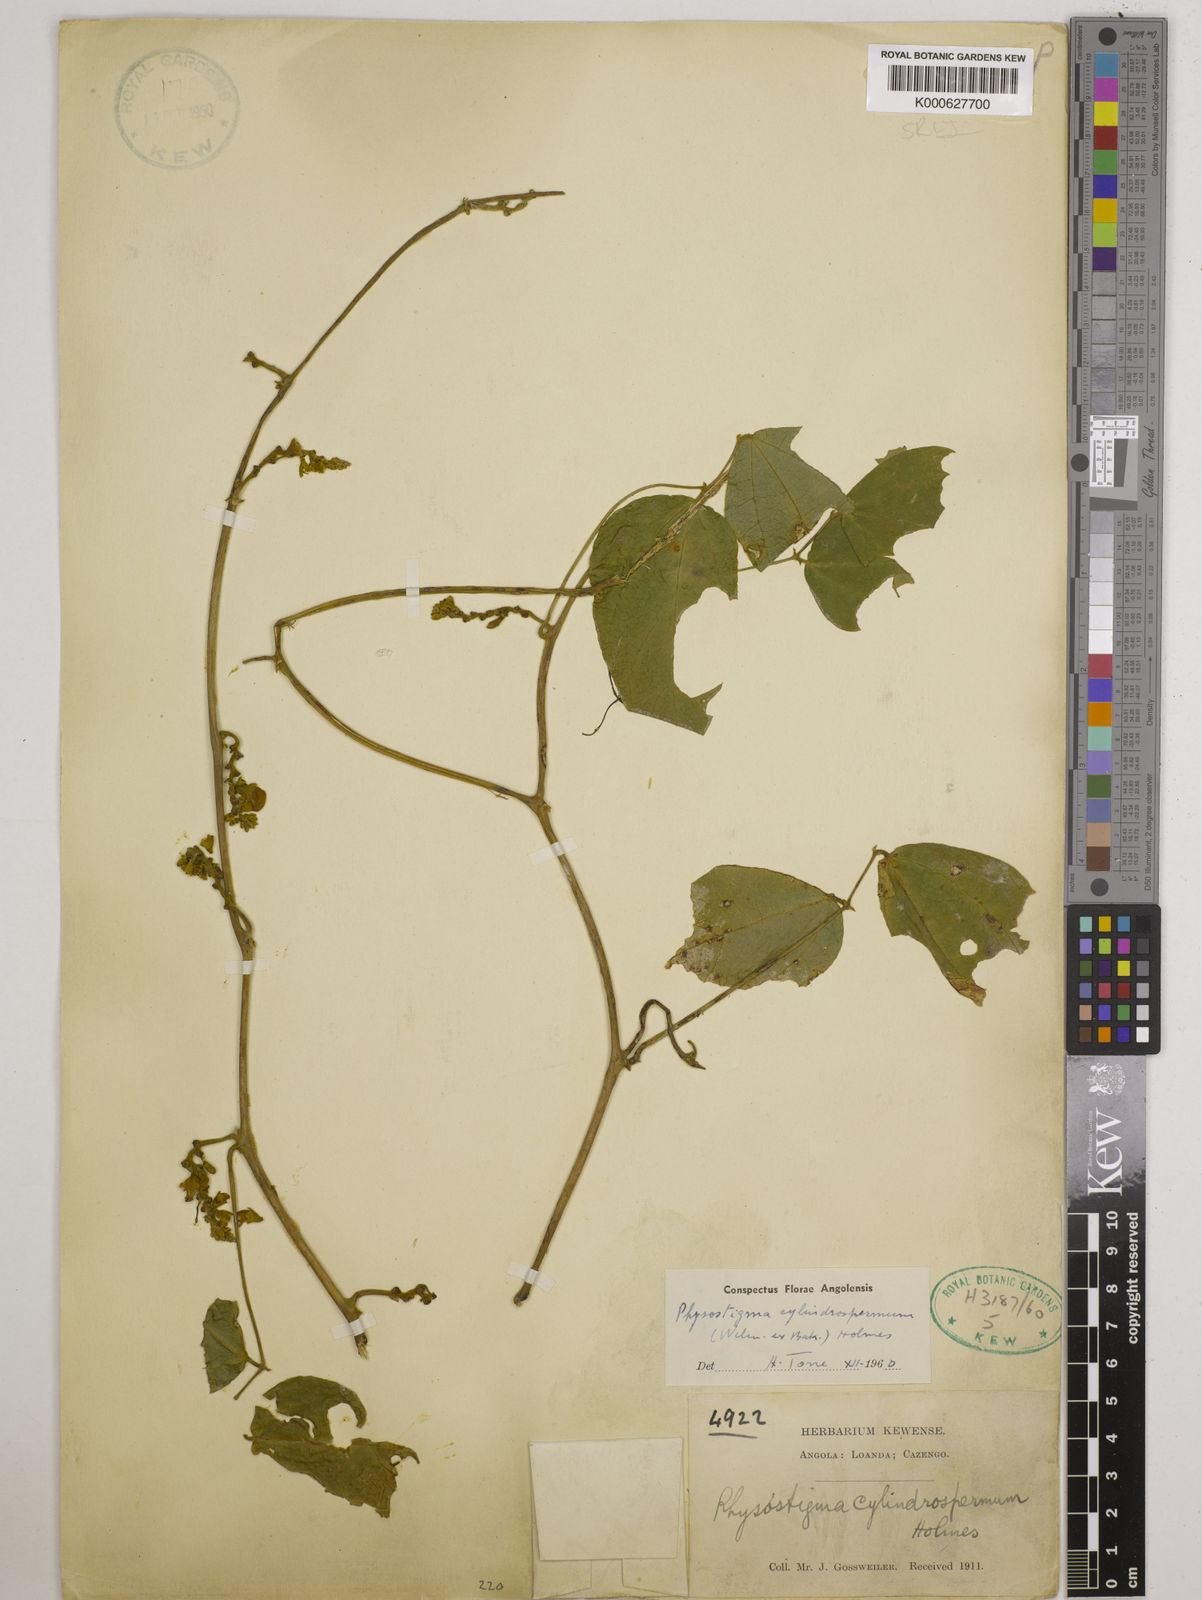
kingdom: Plantae
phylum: Tracheophyta
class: Magnoliopsida
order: Fabales
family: Fabaceae
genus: Physostigma
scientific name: Physostigma cylindrospermum
